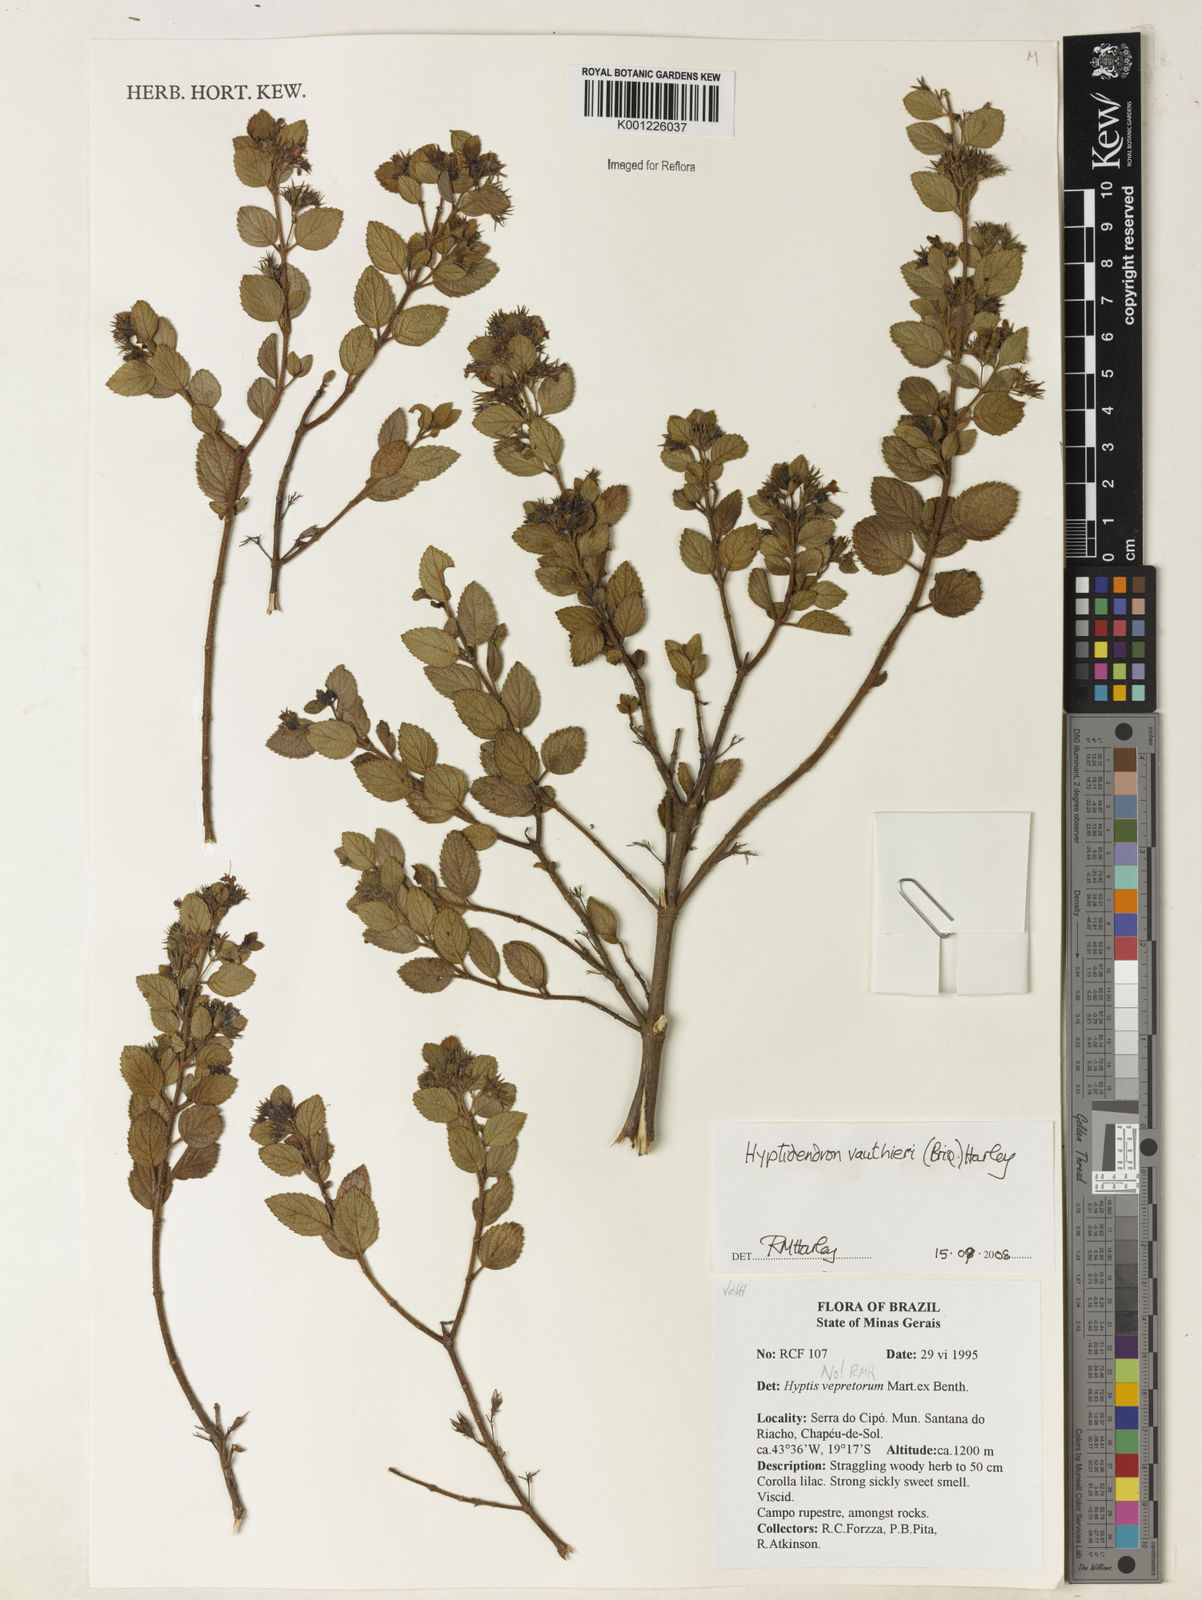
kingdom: Plantae
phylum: Tracheophyta
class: Magnoliopsida
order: Lamiales
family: Lamiaceae
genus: Hyptidendron
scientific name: Hyptidendron vauthieri
